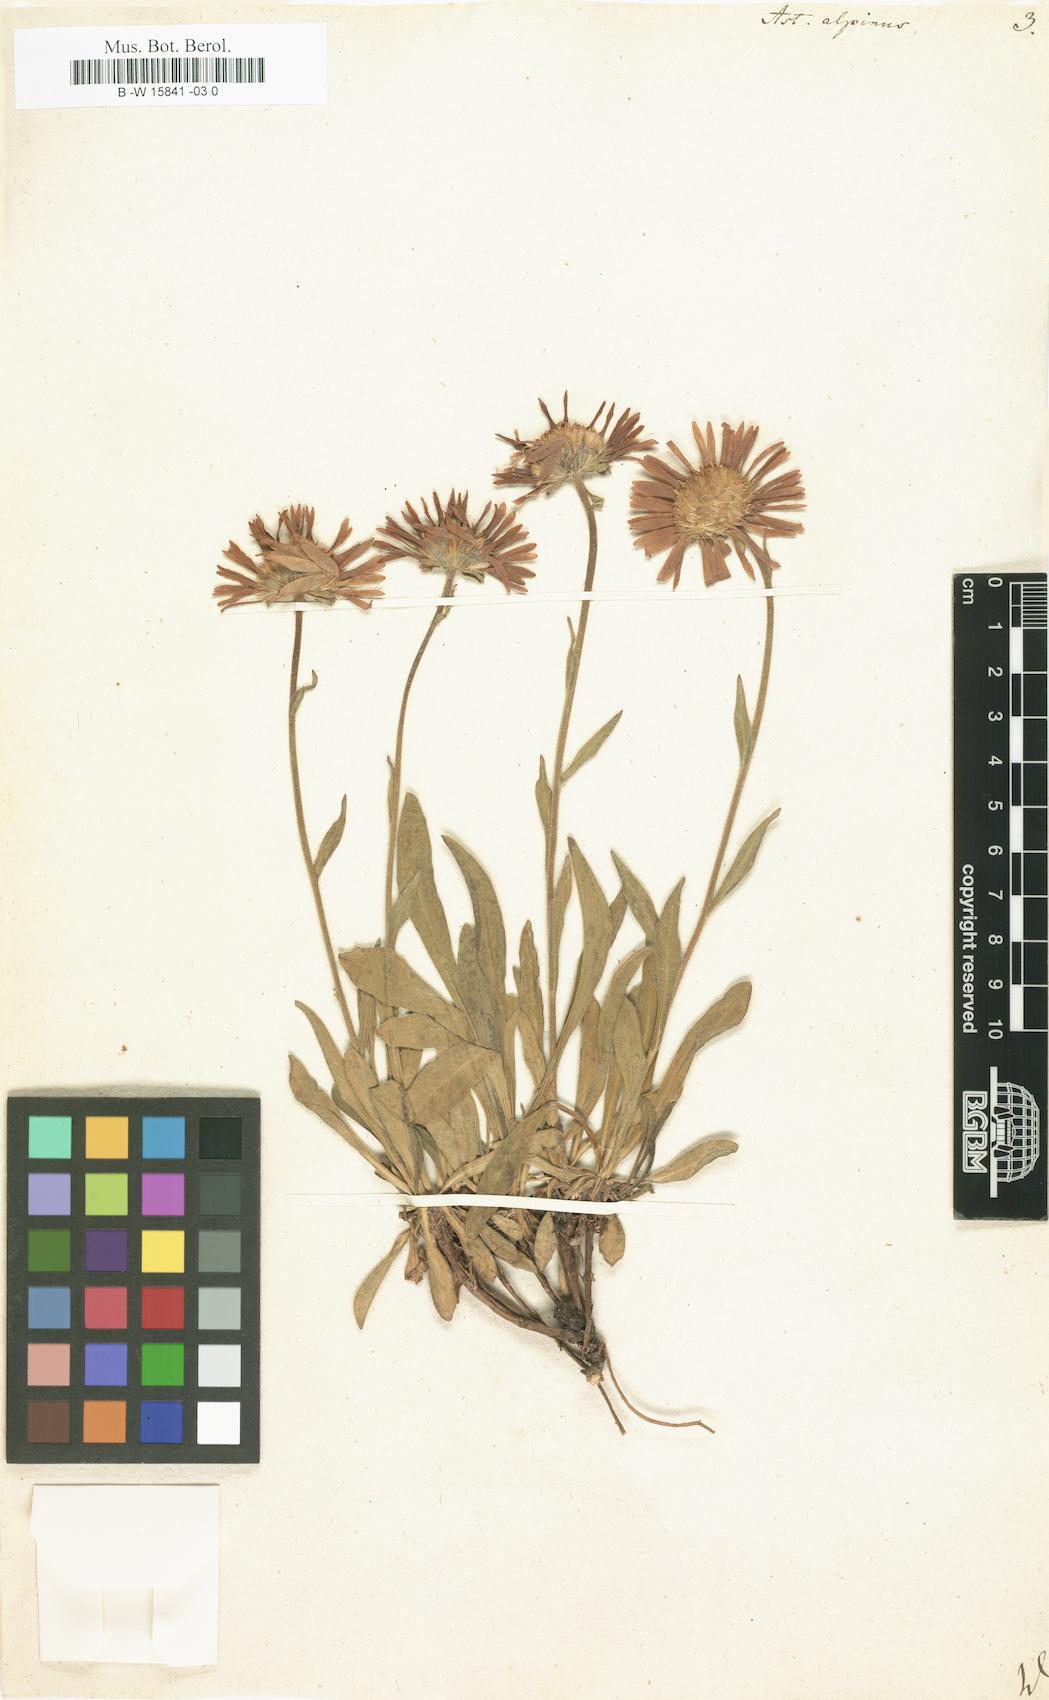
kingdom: Plantae
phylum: Tracheophyta
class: Magnoliopsida
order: Asterales
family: Asteraceae
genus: Aster
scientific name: Aster alpinus
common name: Alpine aster
